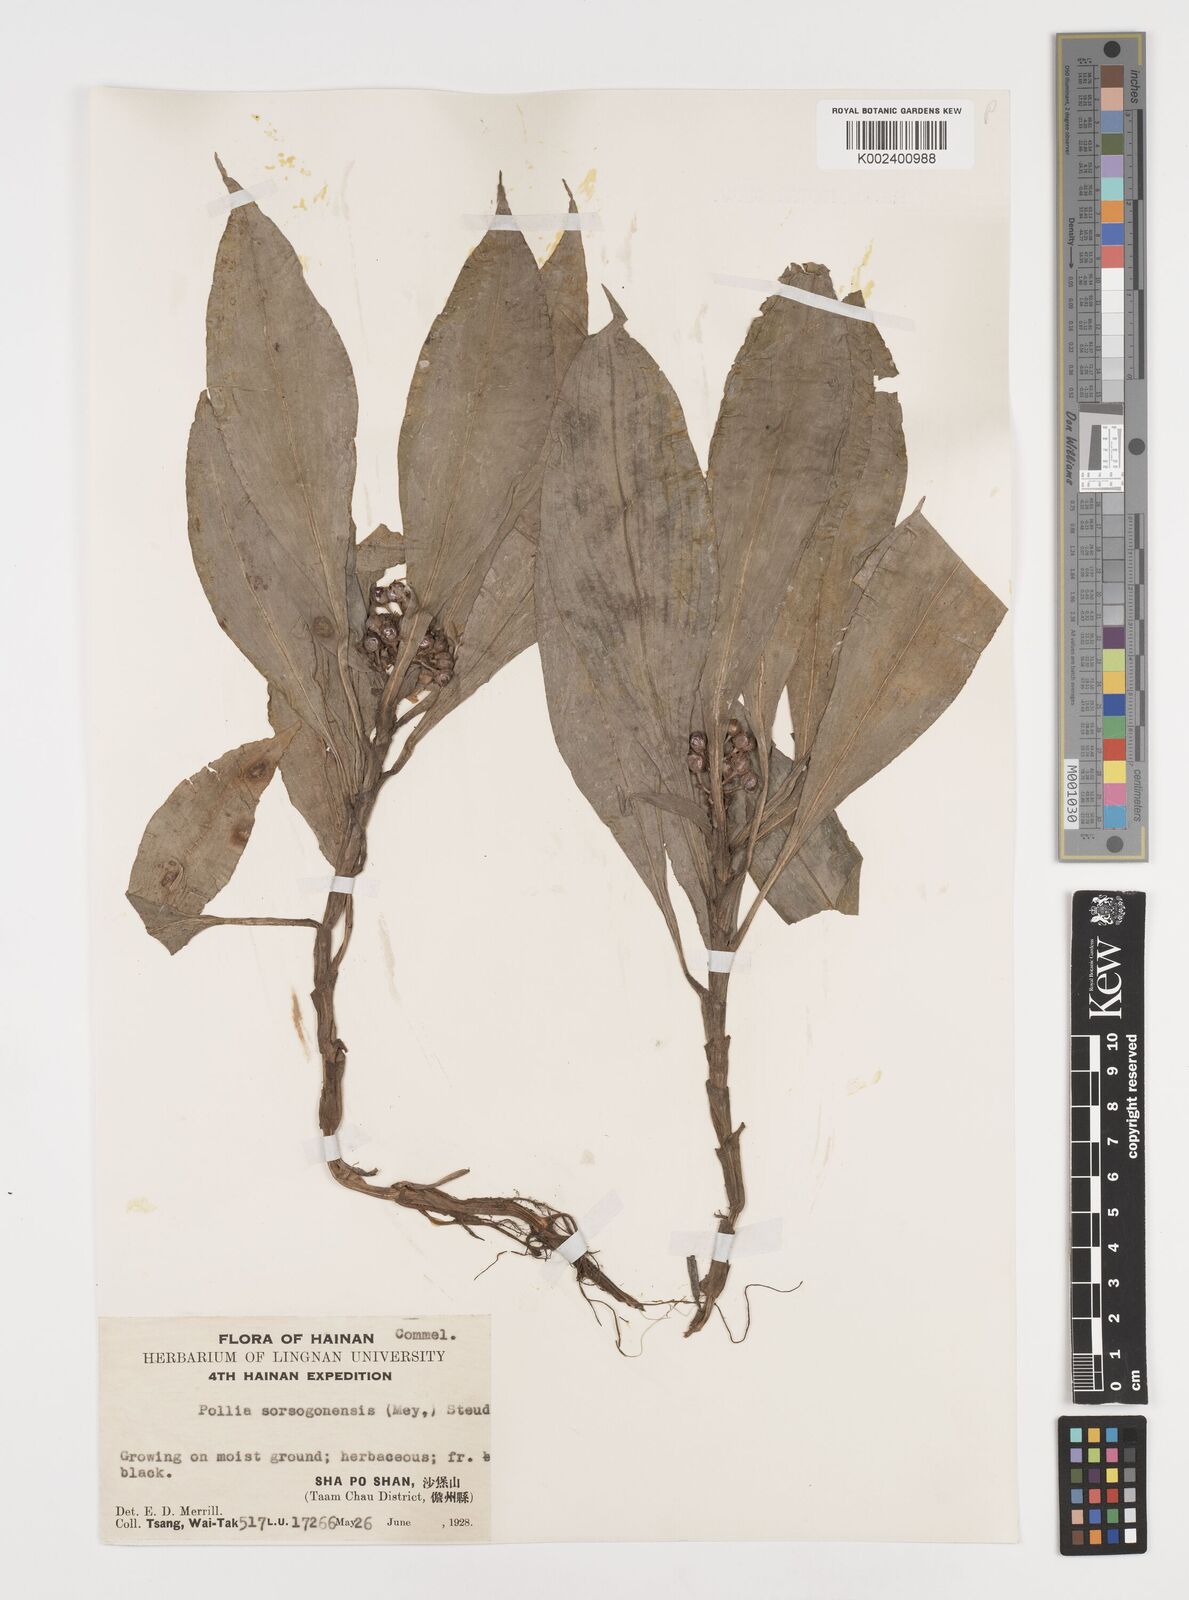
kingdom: Plantae
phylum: Tracheophyta
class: Liliopsida
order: Commelinales
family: Commelinaceae
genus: Pollia
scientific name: Pollia secundiflora
